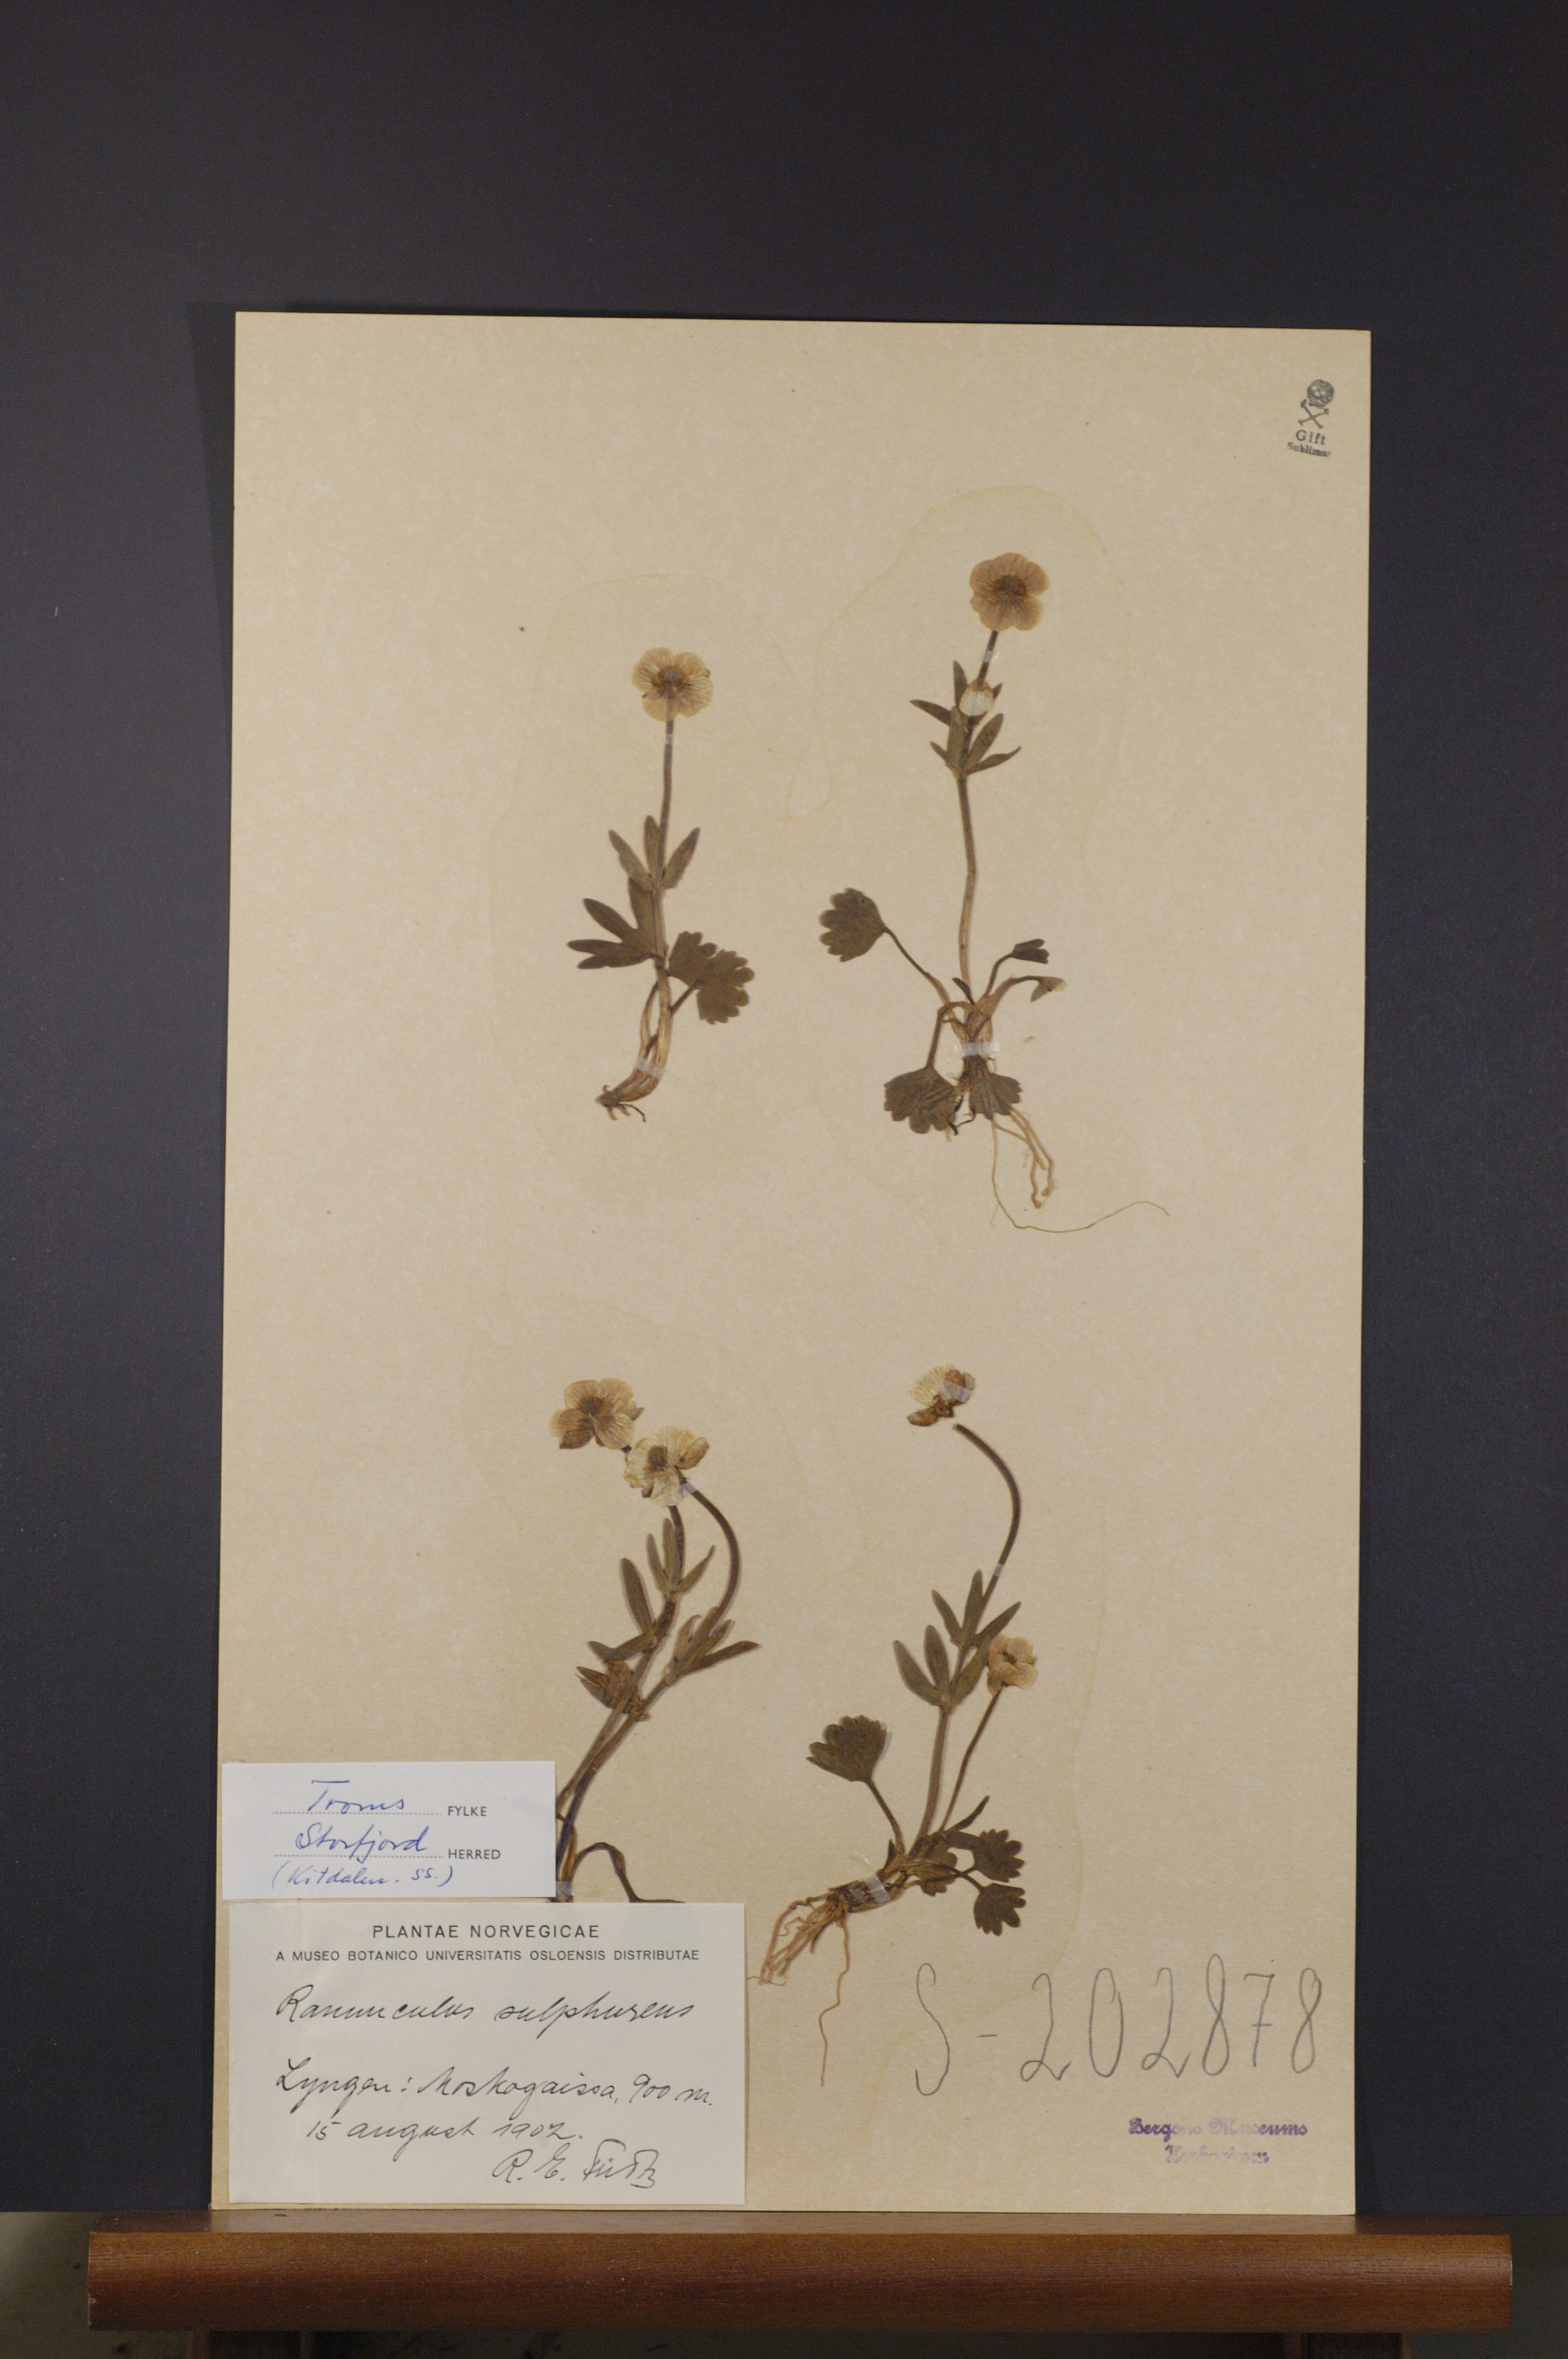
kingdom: Plantae
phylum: Tracheophyta
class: Magnoliopsida
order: Ranunculales
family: Ranunculaceae
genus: Ranunculus
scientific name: Ranunculus sulphureus
